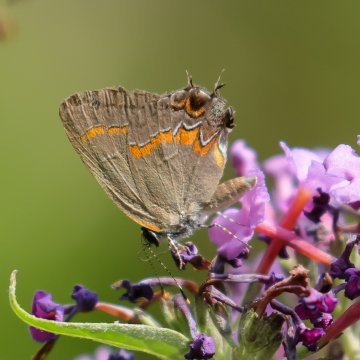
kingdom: Animalia
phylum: Arthropoda
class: Insecta
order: Lepidoptera
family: Lycaenidae
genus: Calycopis
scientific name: Calycopis cecrops
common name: Red-banded Hairstreak
